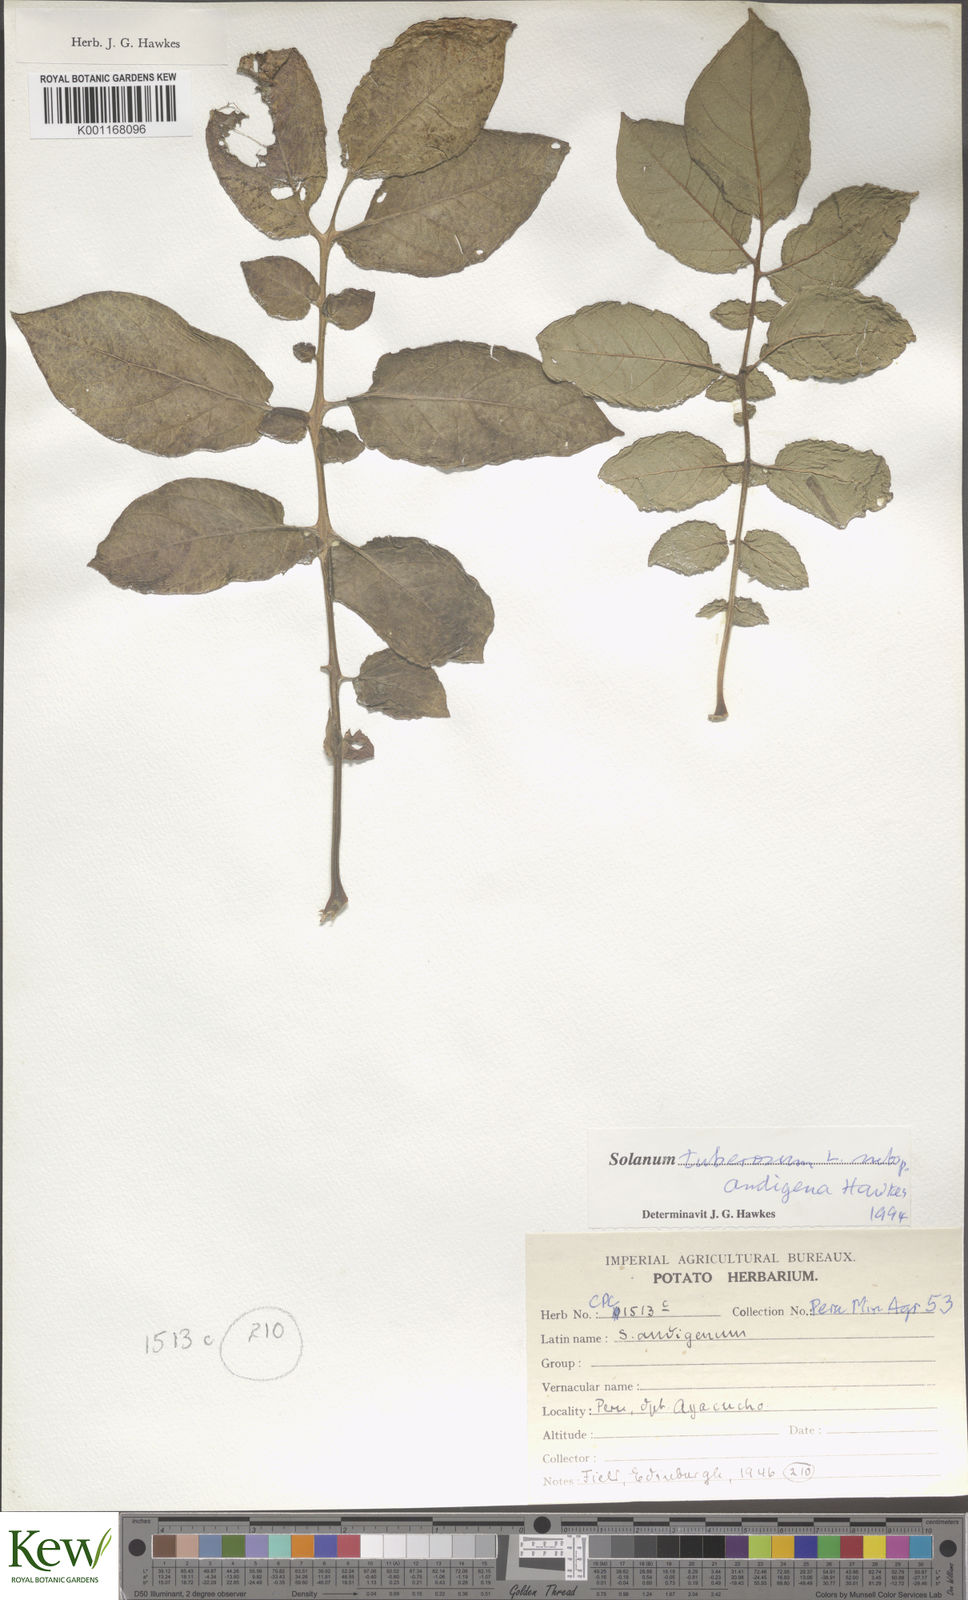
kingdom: Plantae
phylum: Tracheophyta
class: Magnoliopsida
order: Solanales
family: Solanaceae
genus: Solanum
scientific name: Solanum tuberosum
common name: Potato
